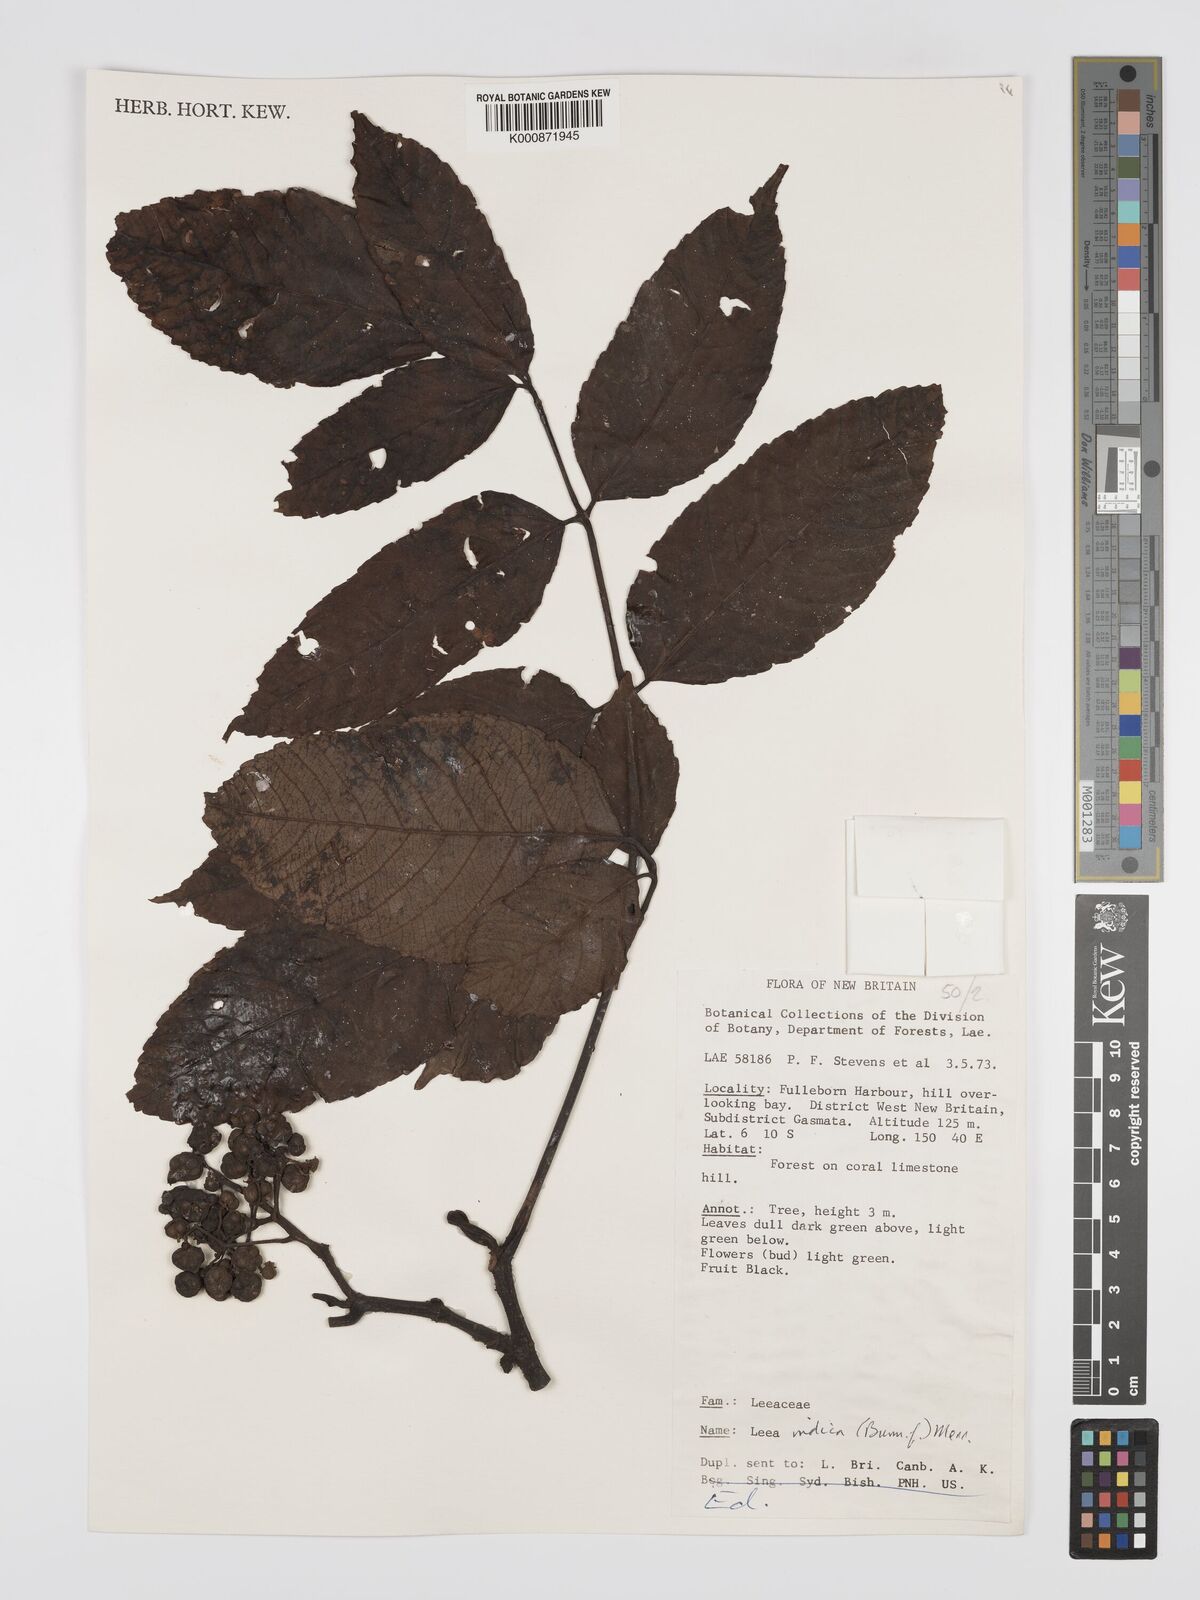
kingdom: Plantae
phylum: Tracheophyta
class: Magnoliopsida
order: Vitales
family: Vitaceae
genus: Leea
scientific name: Leea indica
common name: Bandicoot-berry
